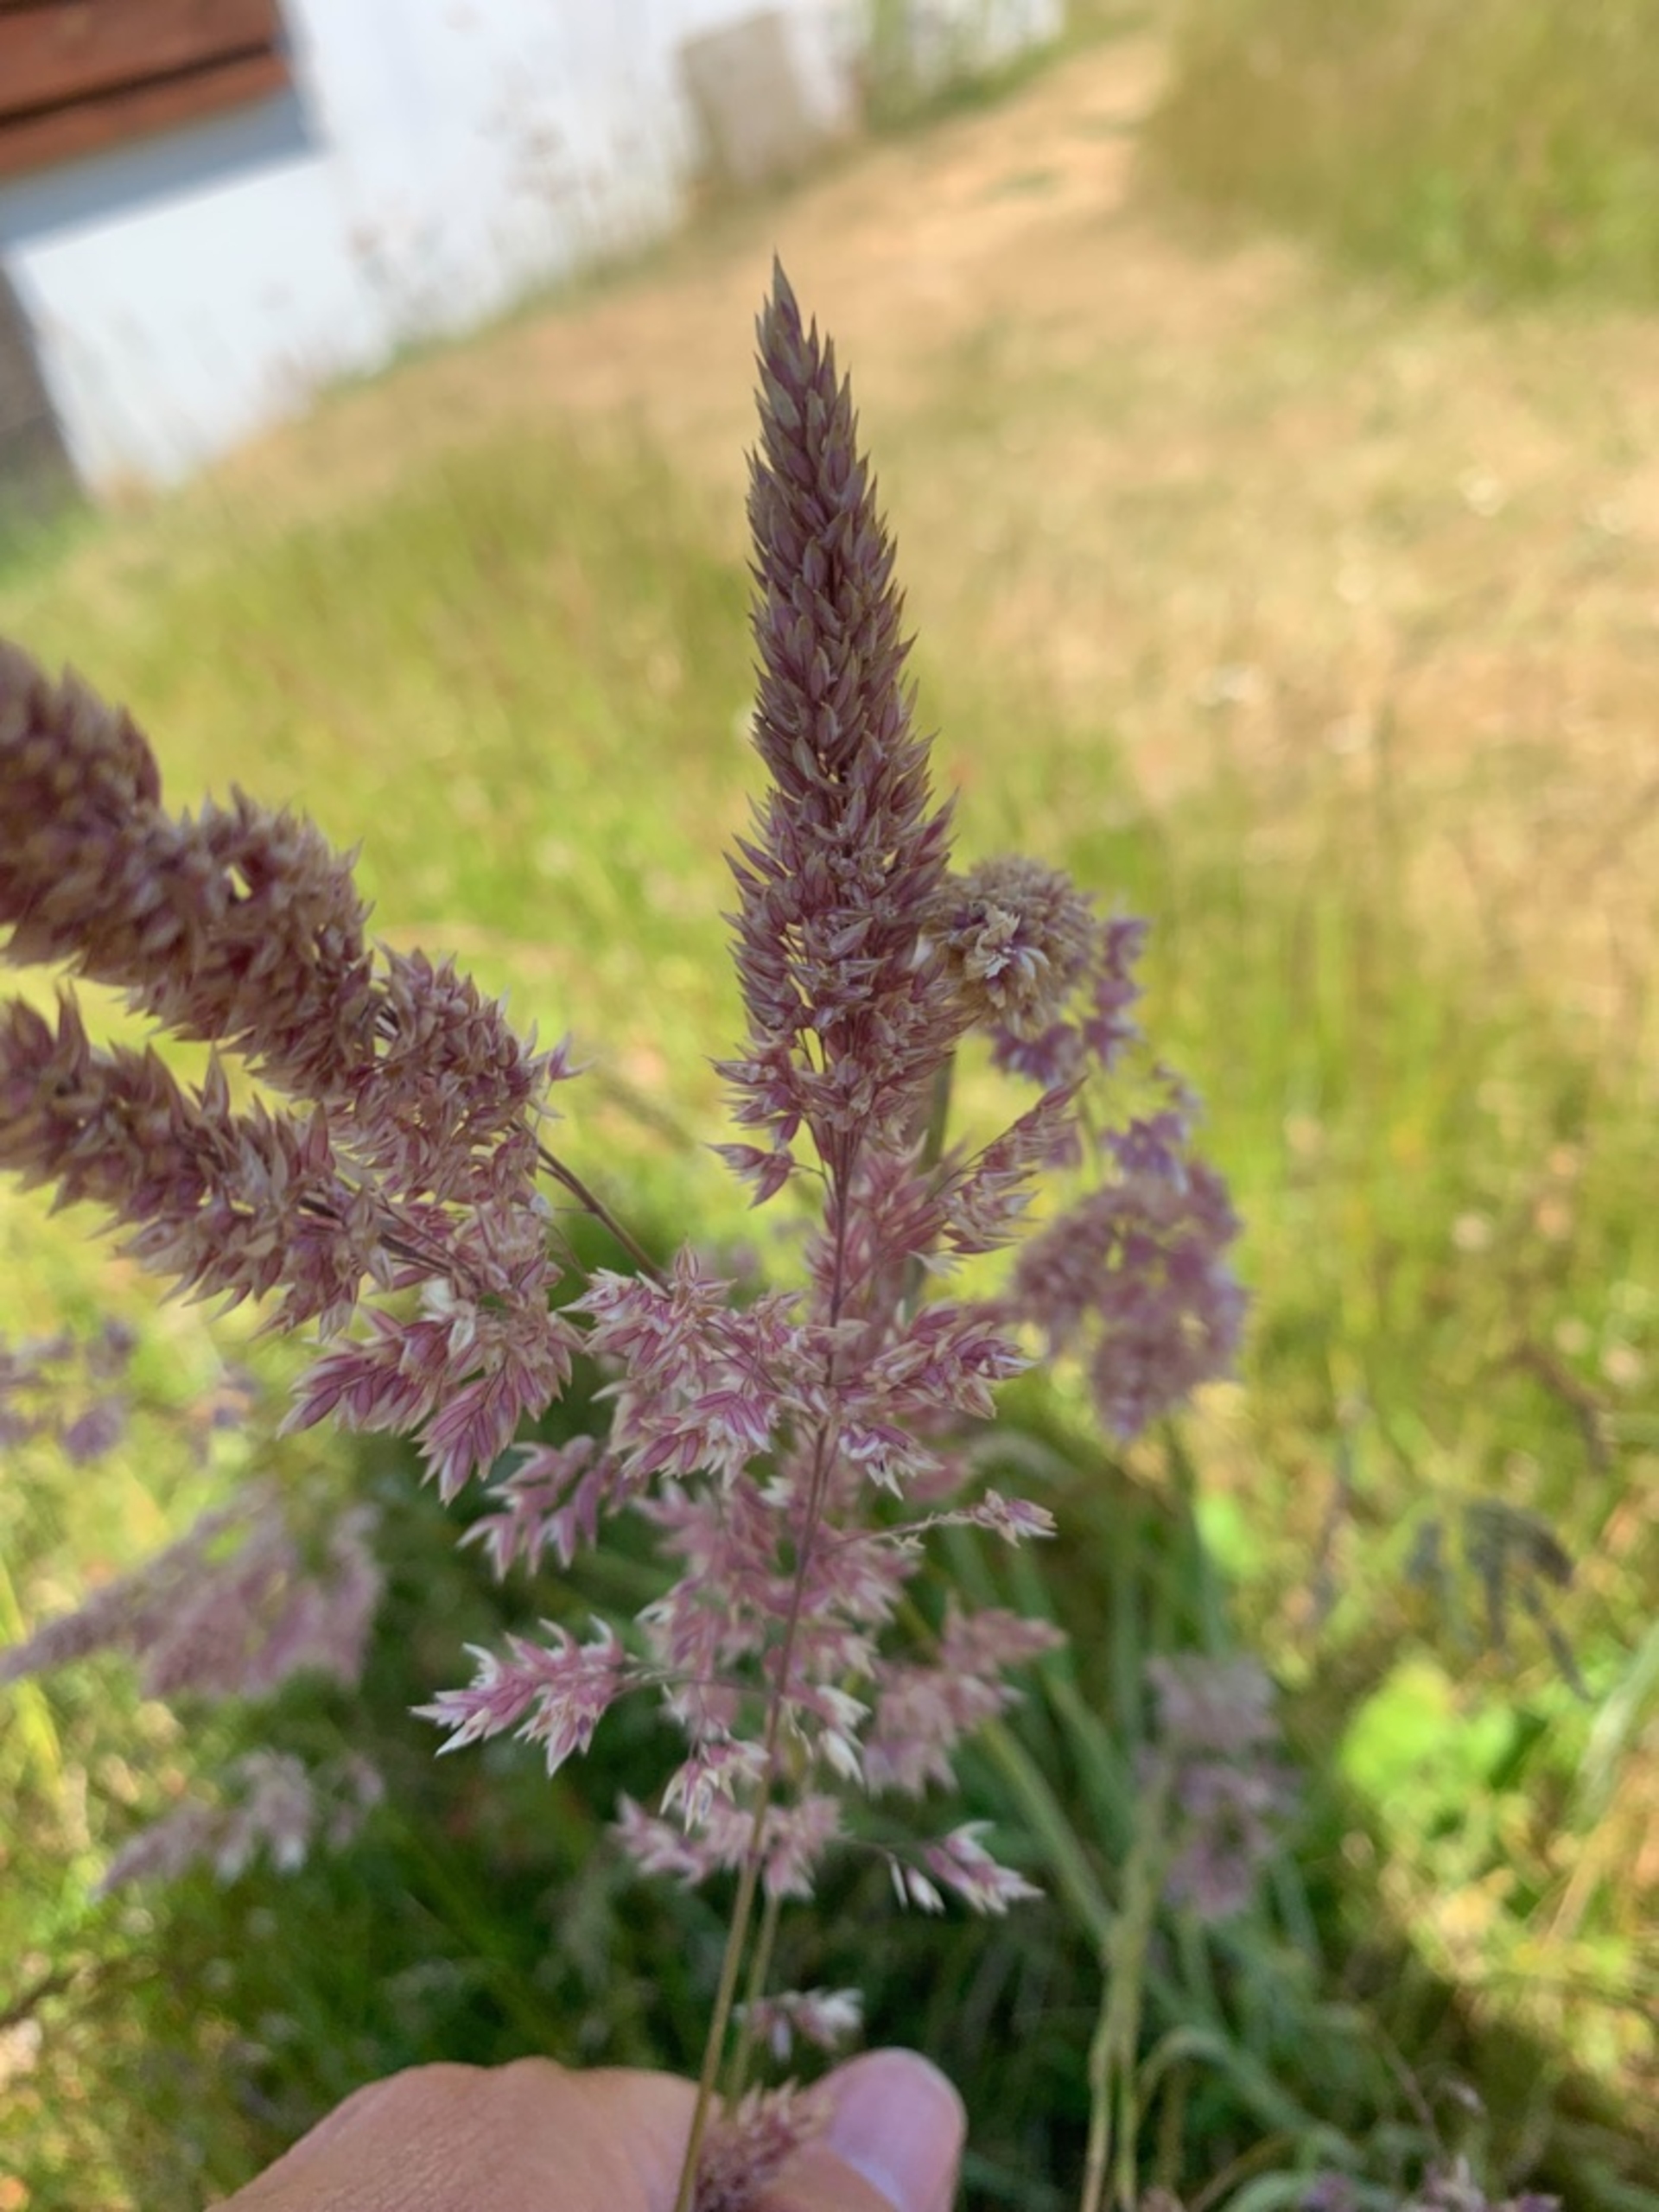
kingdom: Plantae
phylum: Tracheophyta
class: Liliopsida
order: Poales
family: Poaceae
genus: Calamagrostis
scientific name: Calamagrostis epigejos
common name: Bjerg-rørhvene
